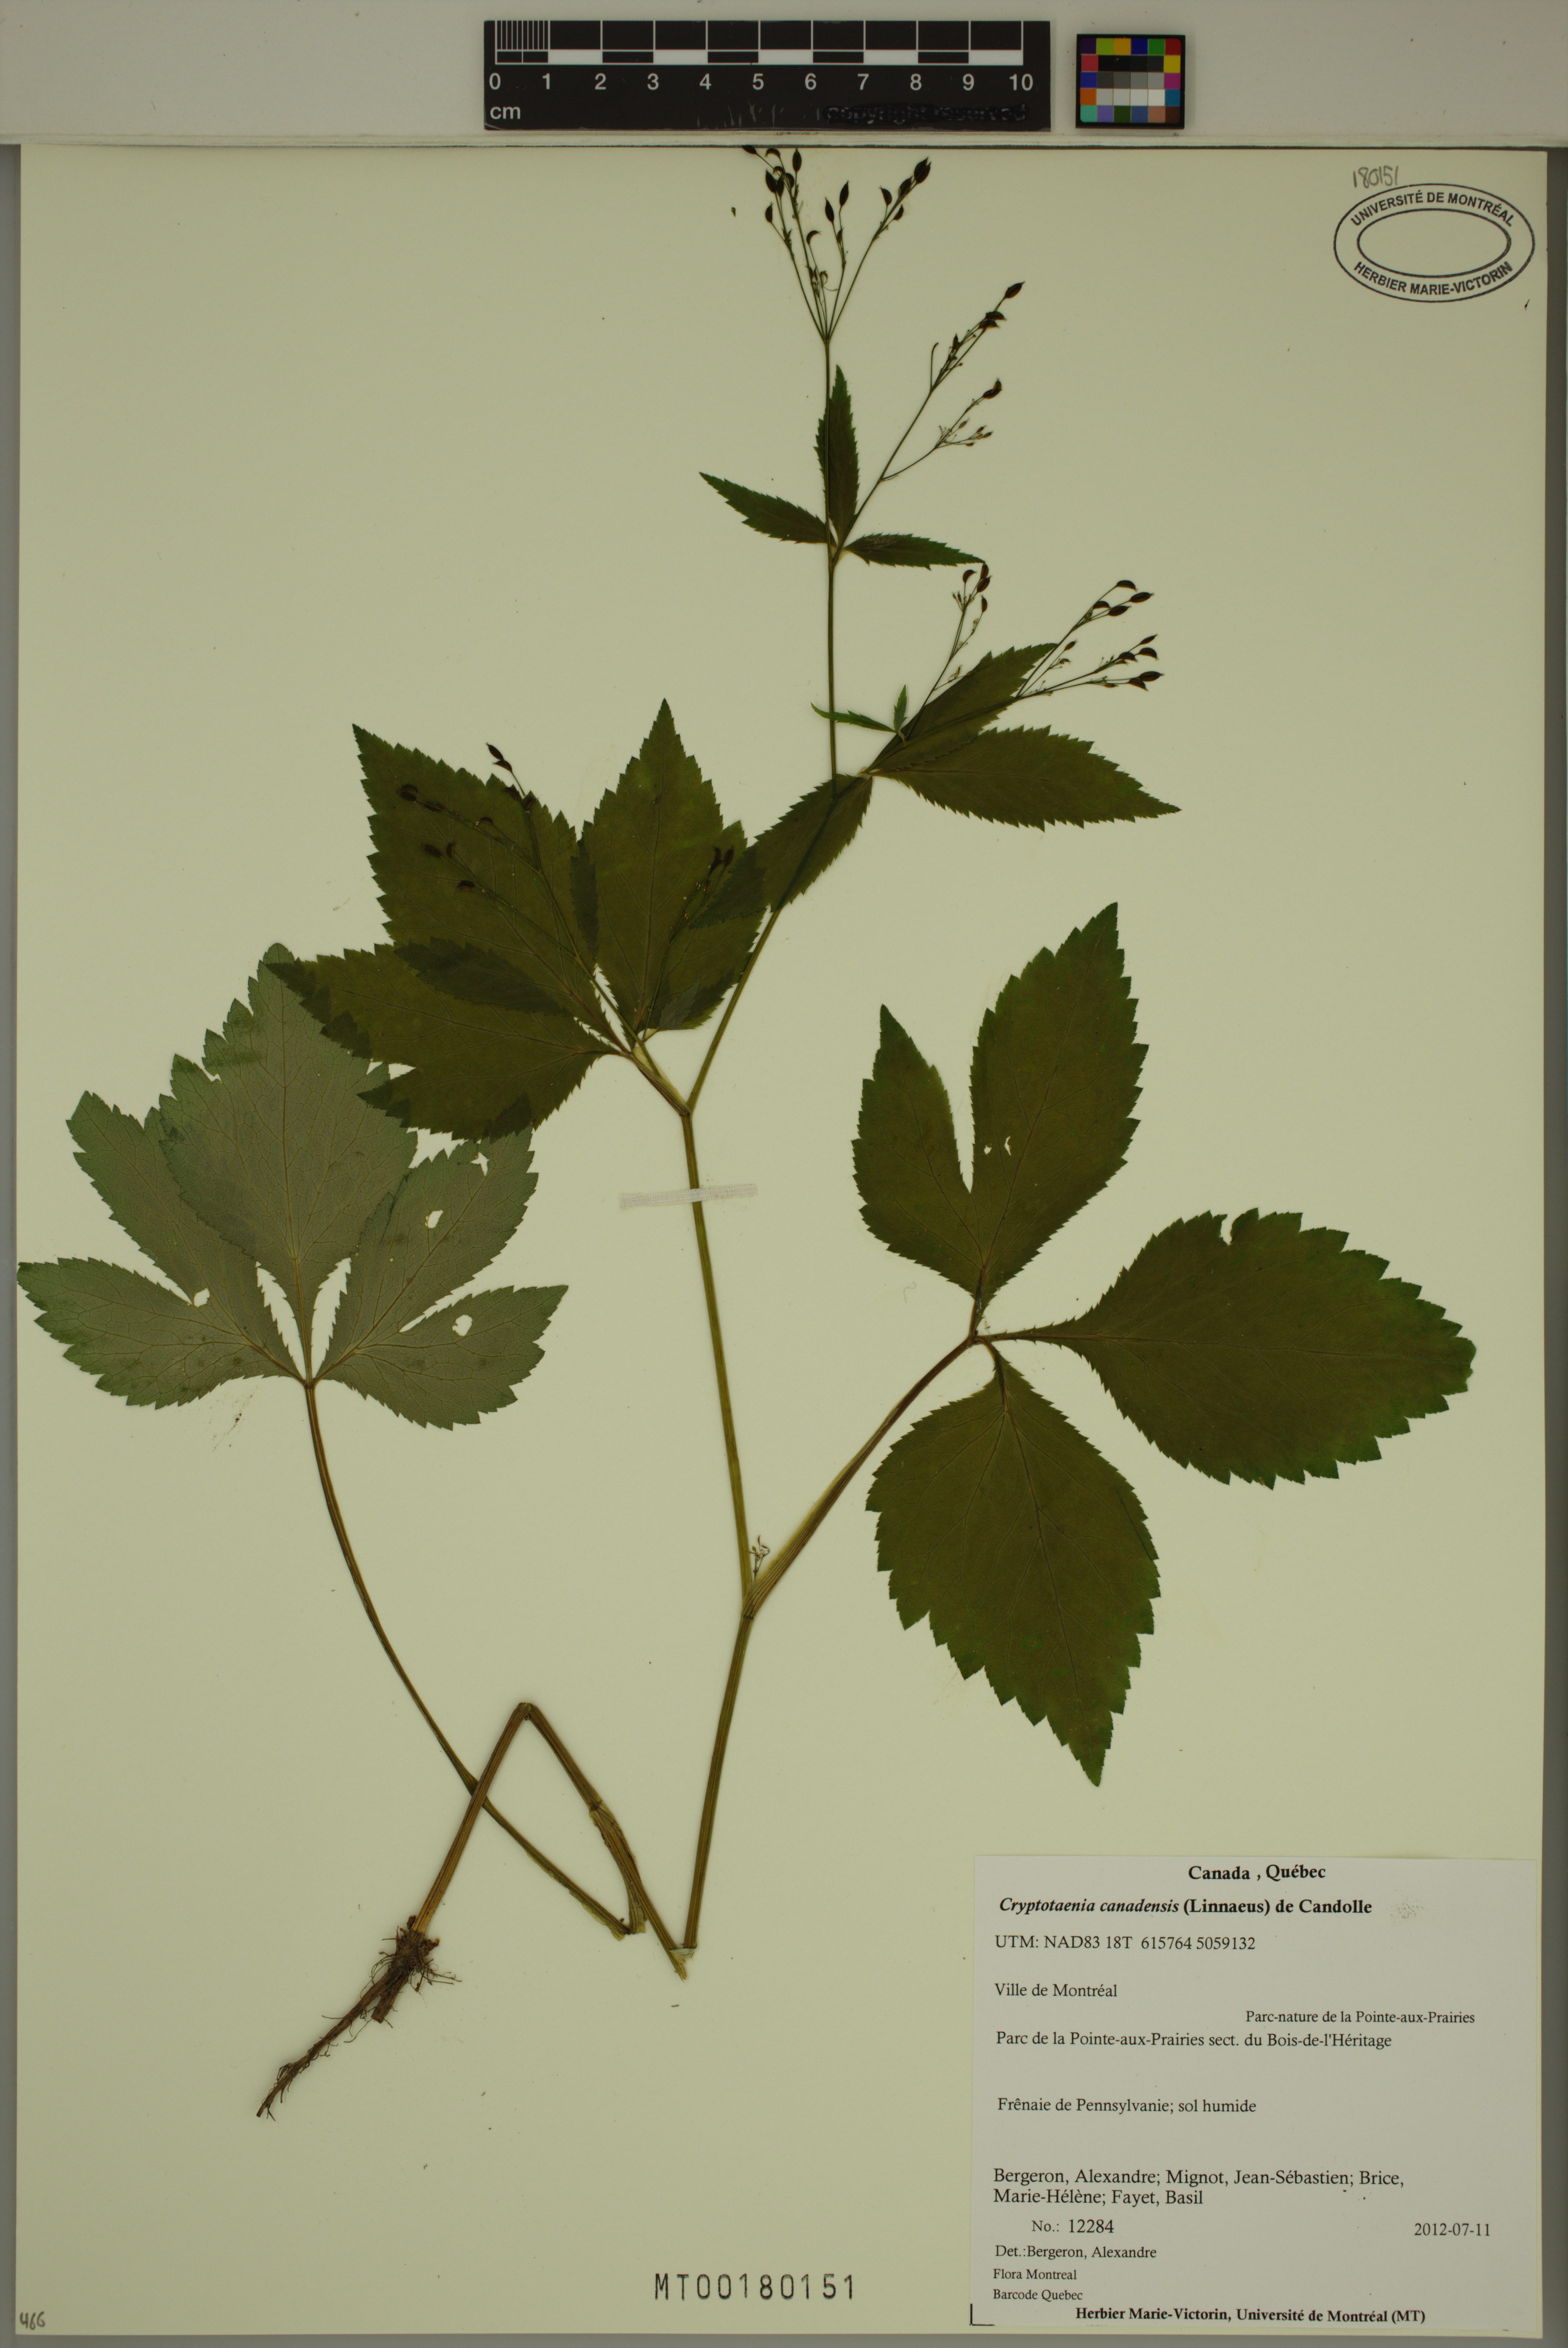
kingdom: Plantae
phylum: Tracheophyta
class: Magnoliopsida
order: Apiales
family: Apiaceae
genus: Cryptotaenia
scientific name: Cryptotaenia canadensis
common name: Honewort
